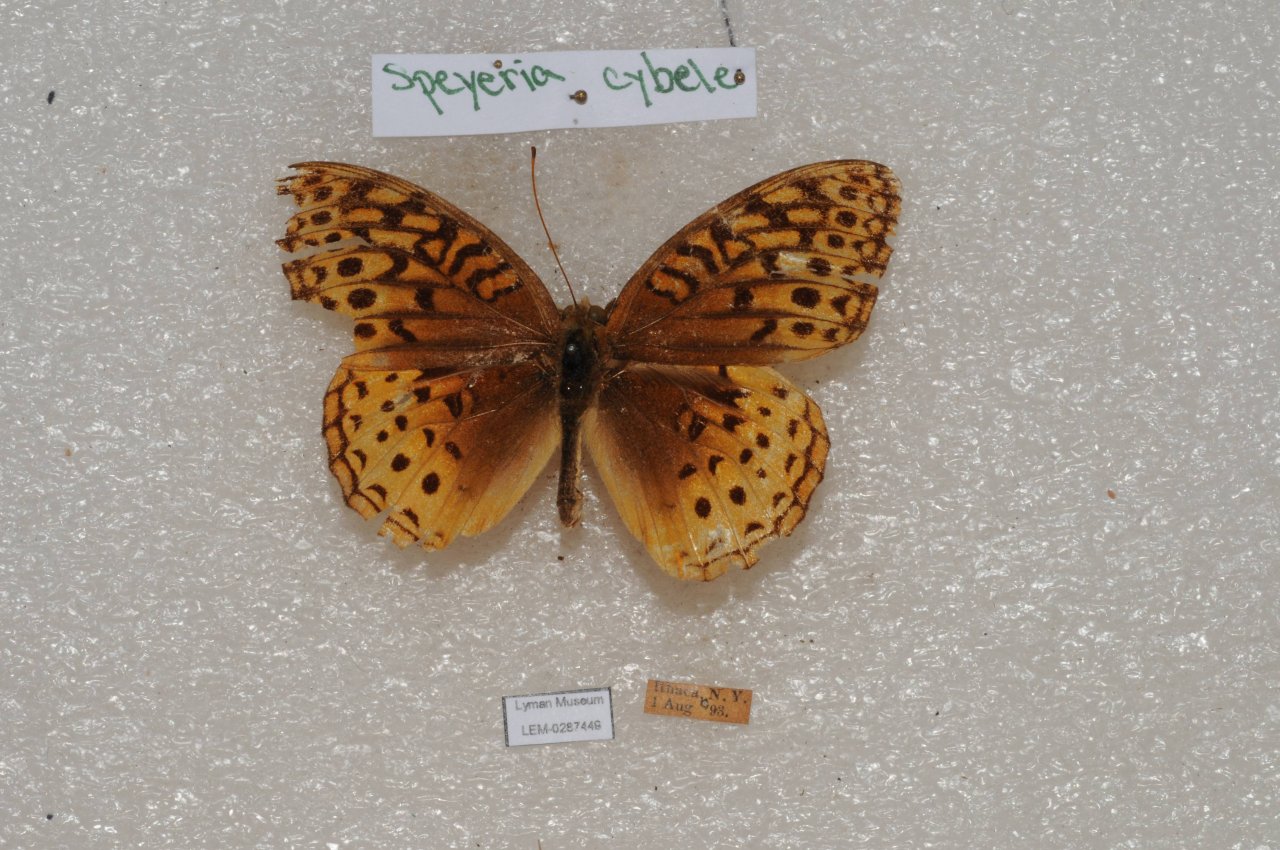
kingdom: Animalia
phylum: Arthropoda
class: Insecta
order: Lepidoptera
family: Nymphalidae
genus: Speyeria
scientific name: Speyeria cybele
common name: Great Spangled Fritillary
